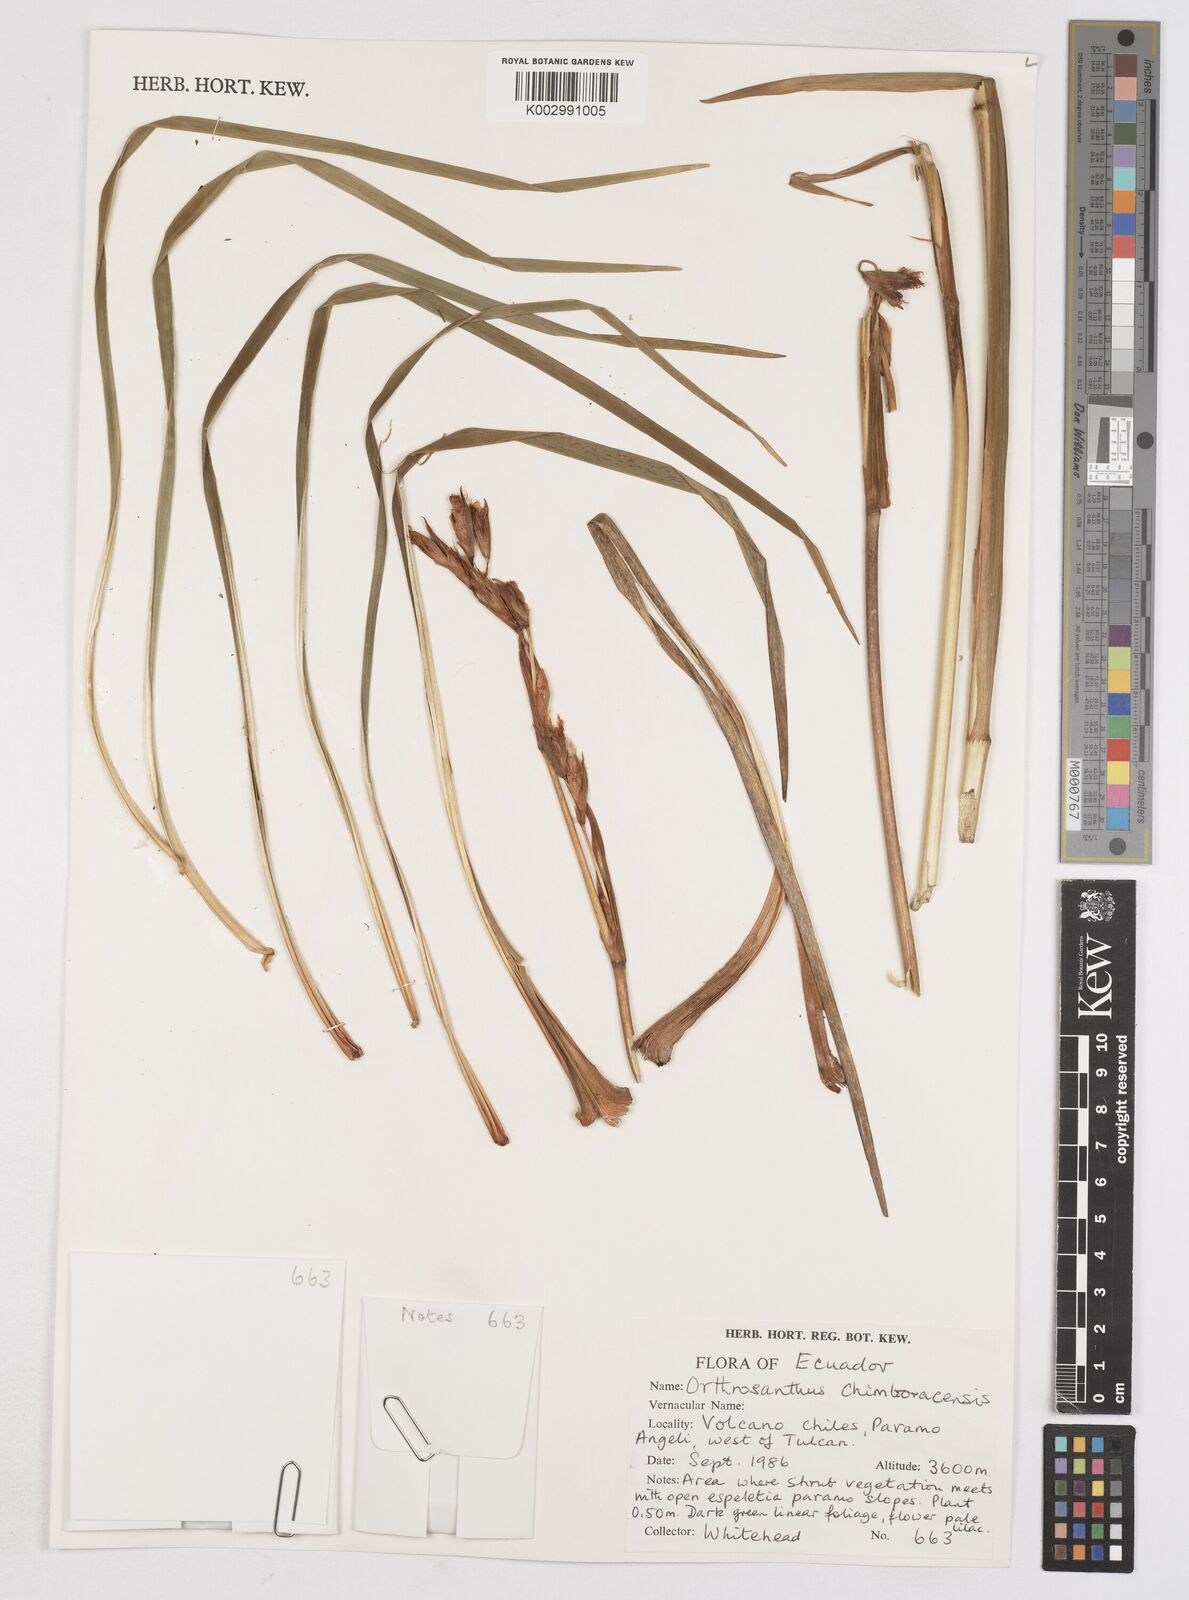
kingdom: Plantae
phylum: Tracheophyta
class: Liliopsida
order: Asparagales
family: Iridaceae
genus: Orthrosanthus
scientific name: Orthrosanthus chimboracensis
